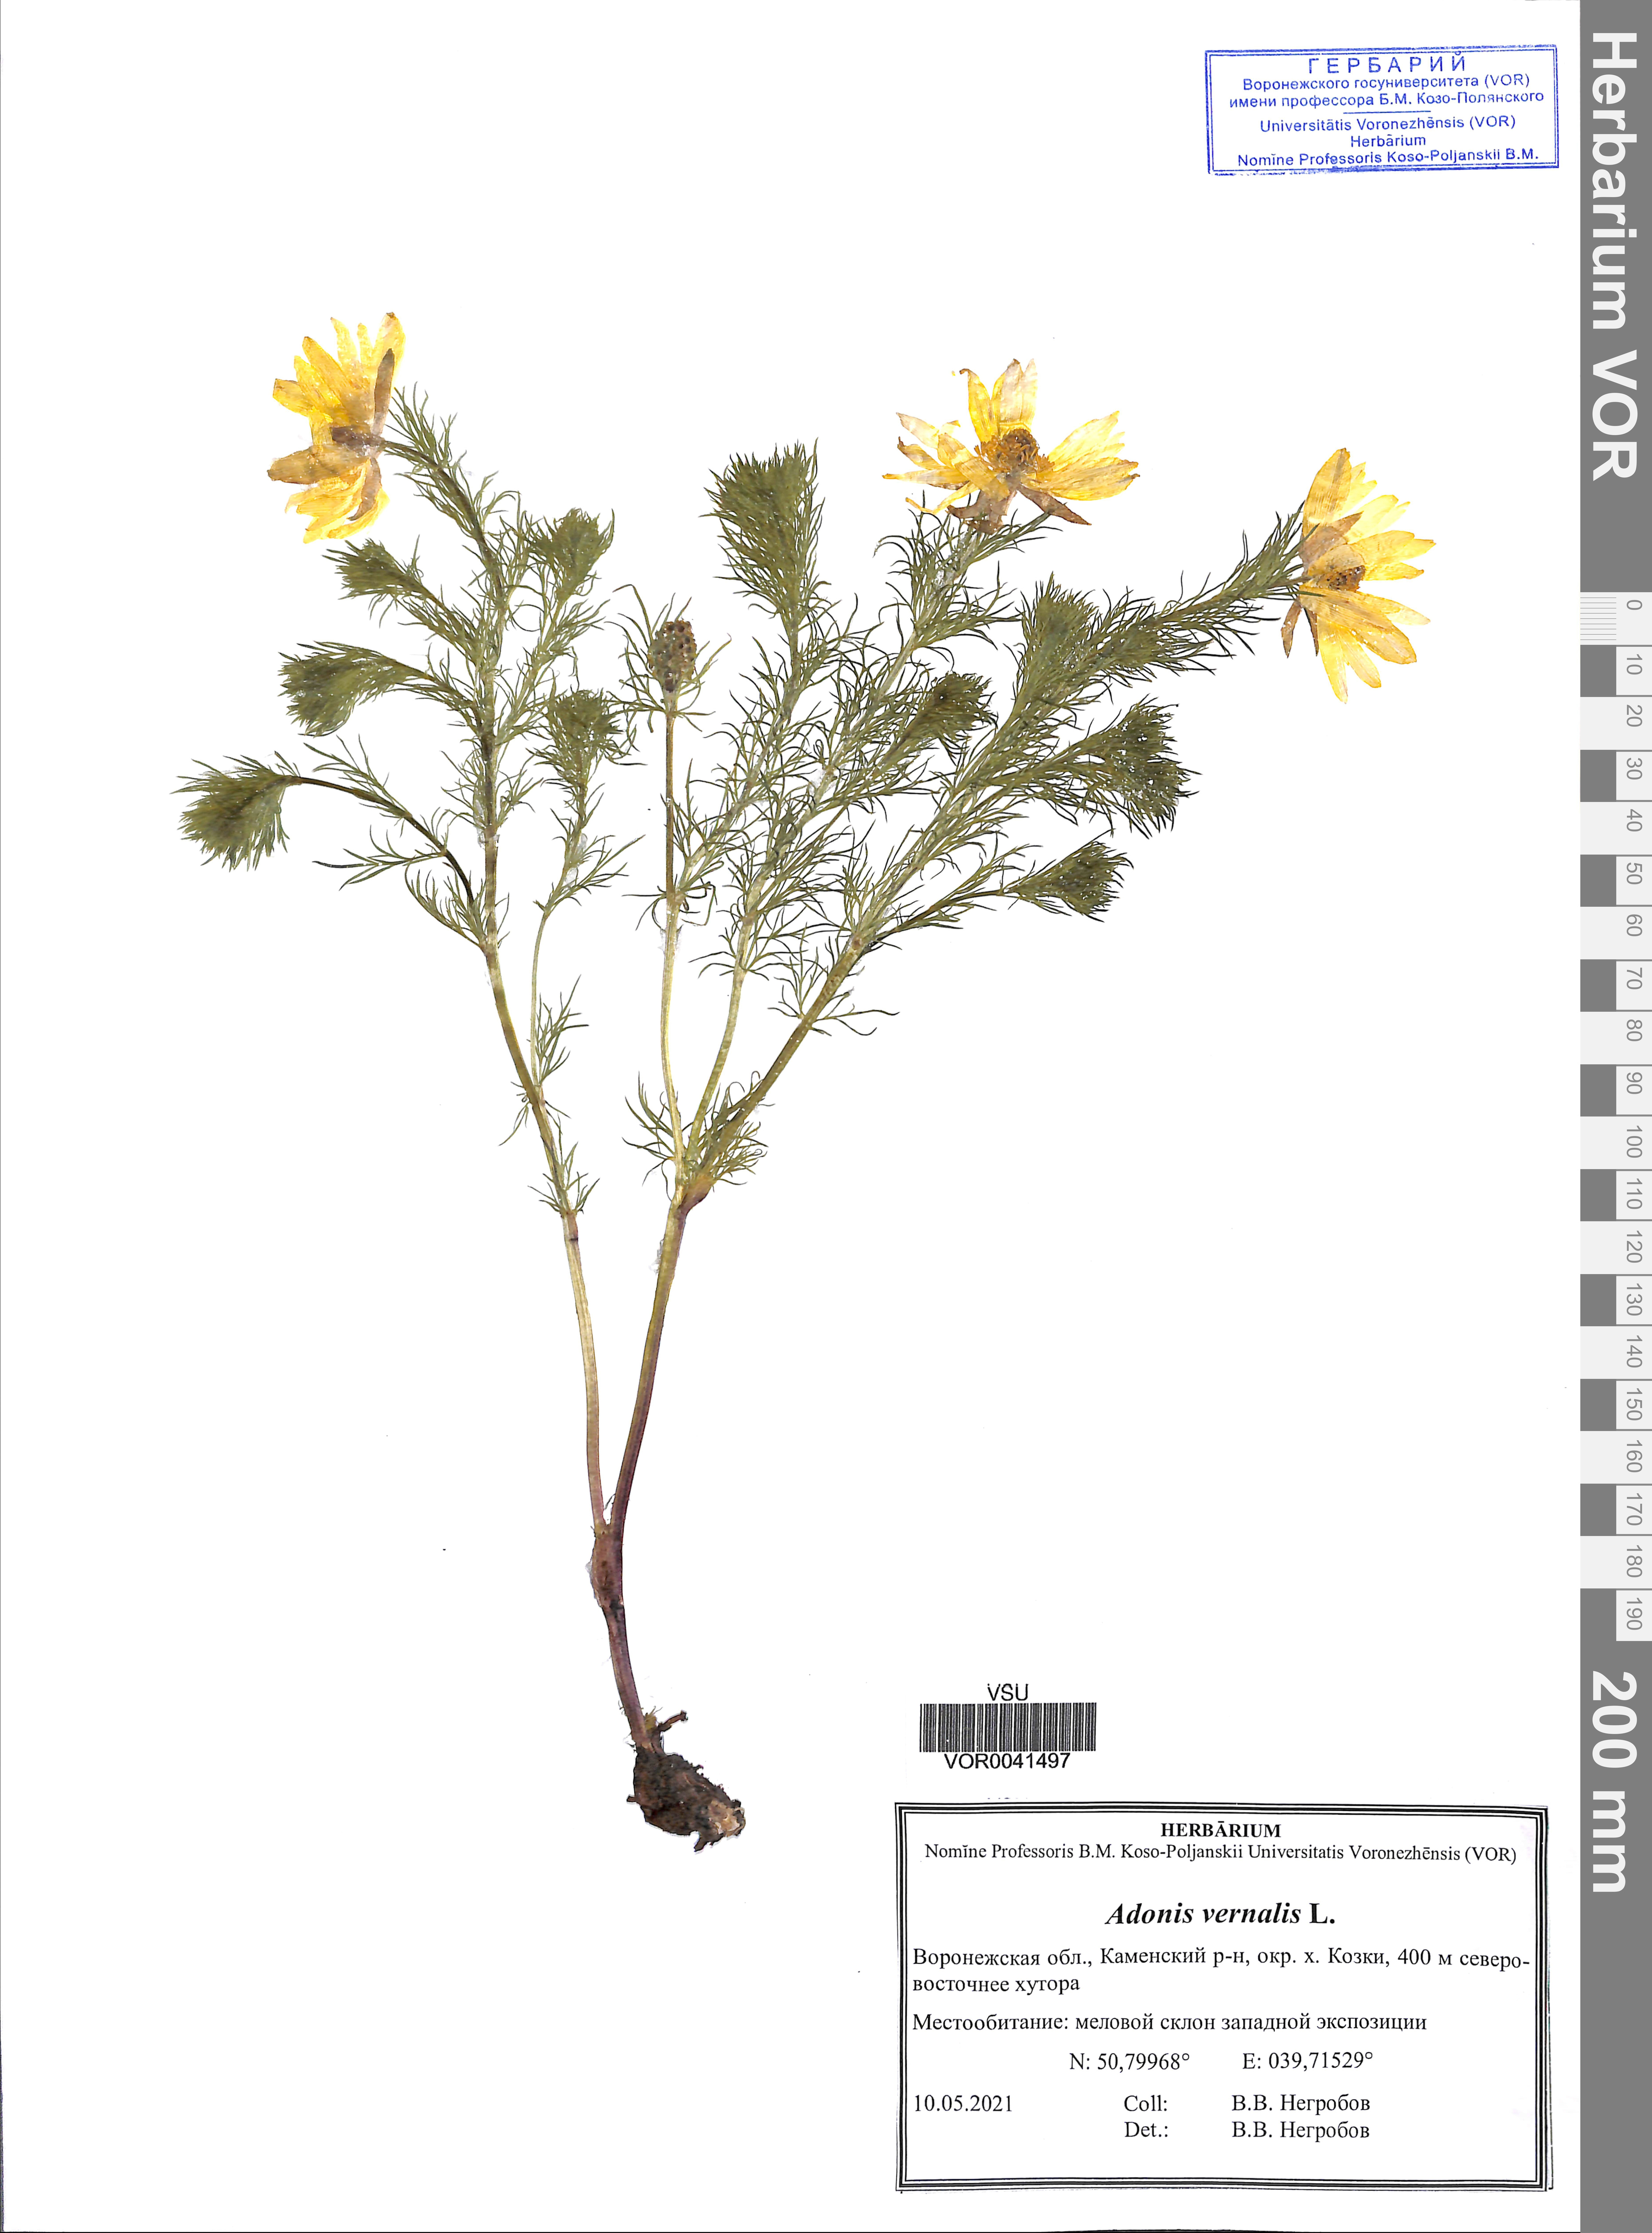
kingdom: Plantae
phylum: Tracheophyta
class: Magnoliopsida
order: Ranunculales
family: Ranunculaceae
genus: Adonis
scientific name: Adonis vernalis
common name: Yellow pheasants-eye
